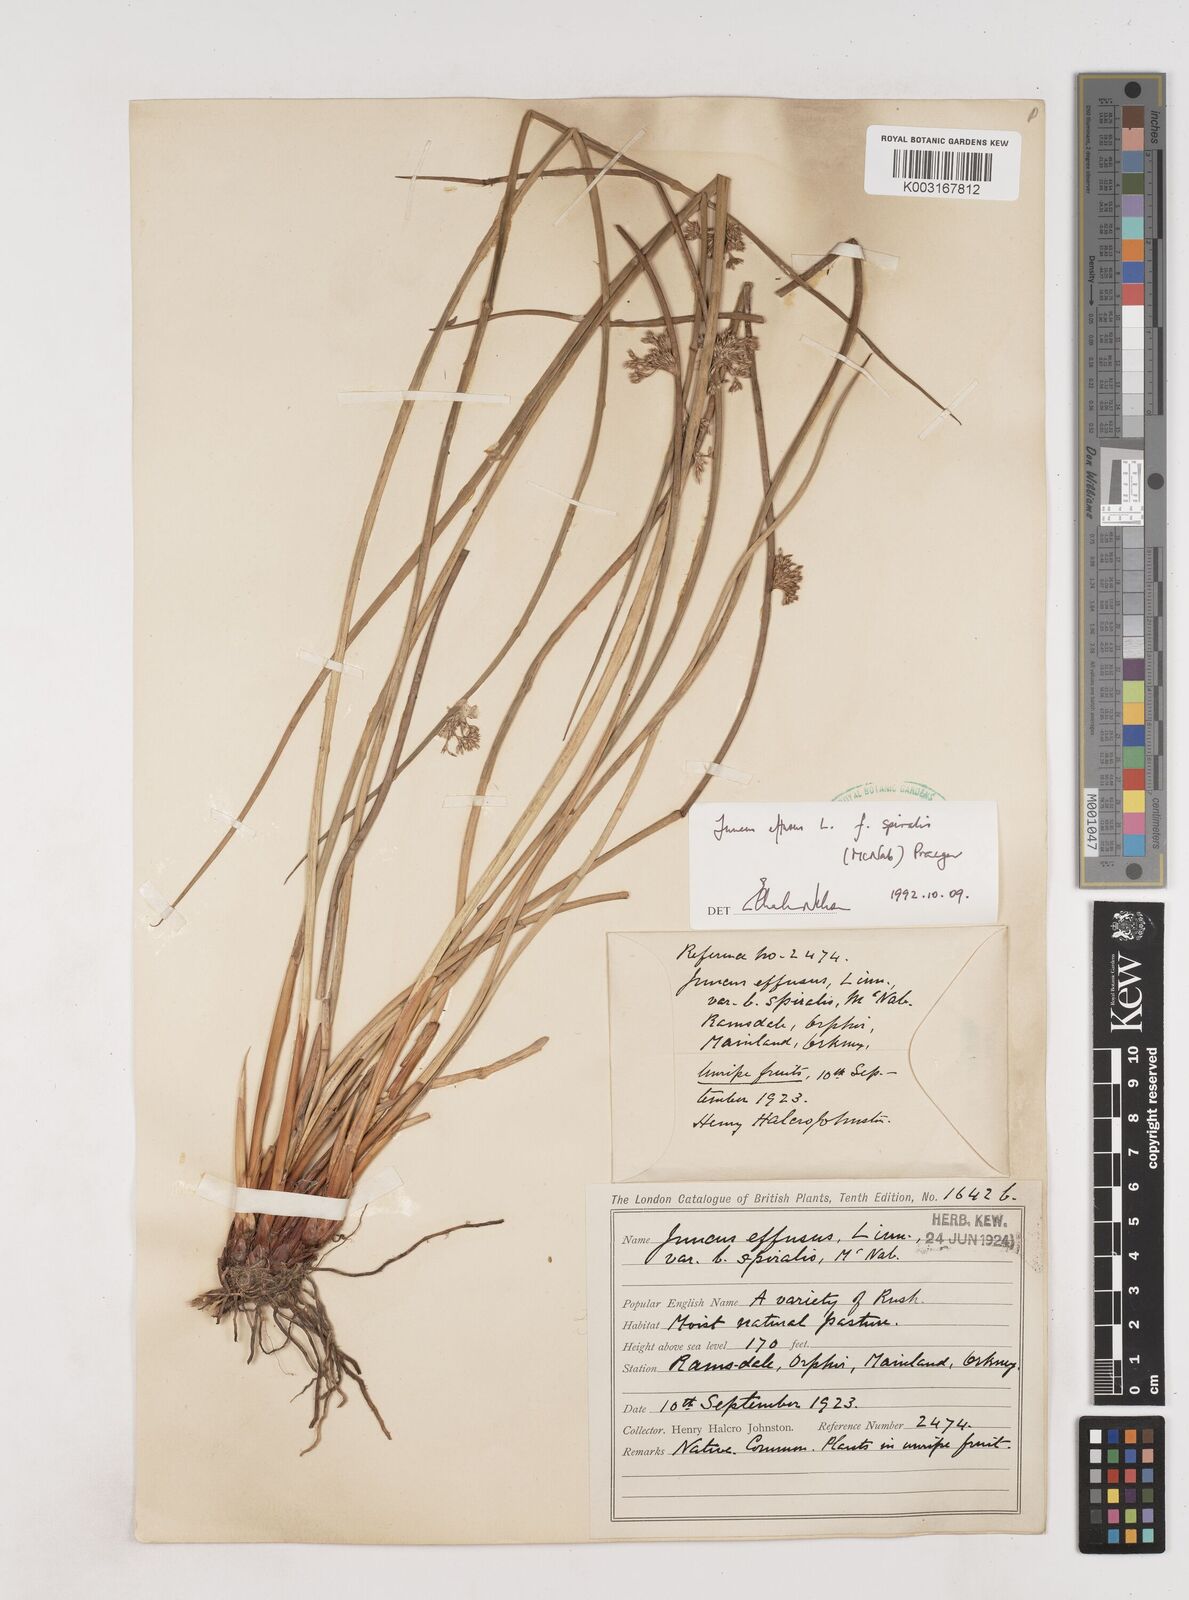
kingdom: Plantae
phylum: Tracheophyta
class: Liliopsida
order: Poales
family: Juncaceae
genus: Juncus
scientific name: Juncus effusus
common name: Soft rush
